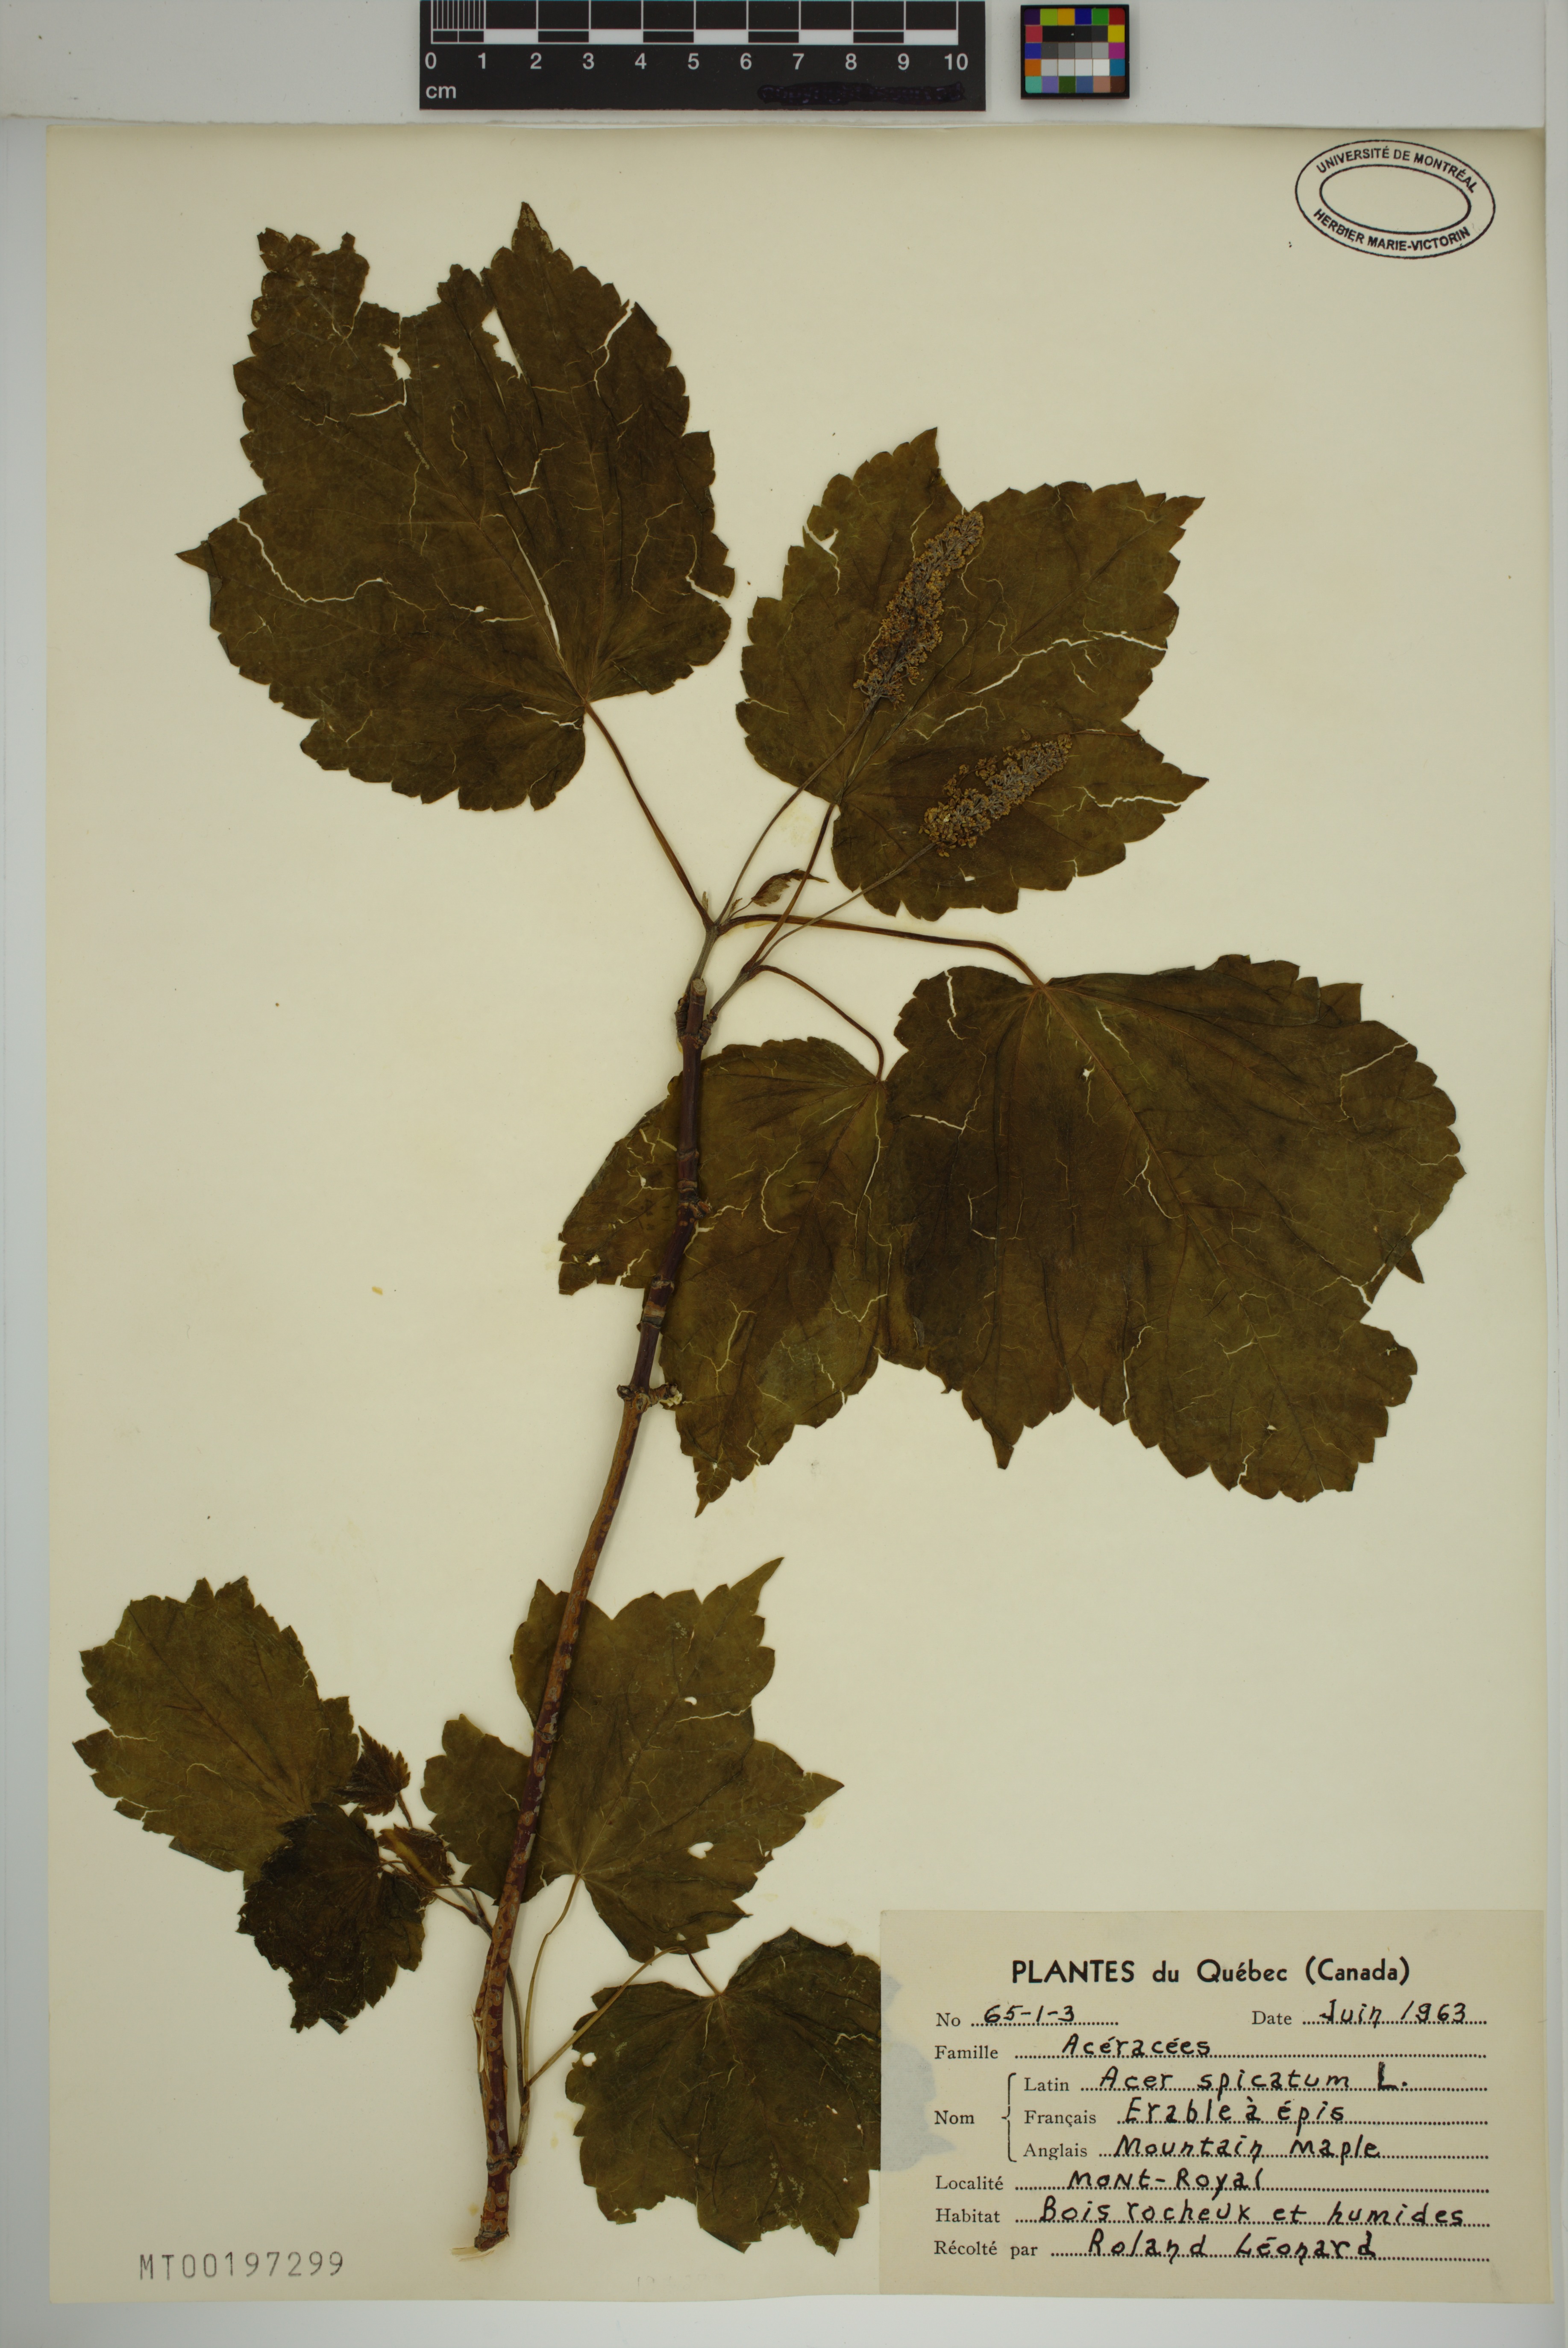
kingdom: Plantae
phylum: Tracheophyta
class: Magnoliopsida
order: Sapindales
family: Sapindaceae
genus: Acer
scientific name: Acer spicatum
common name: Mountain maple
